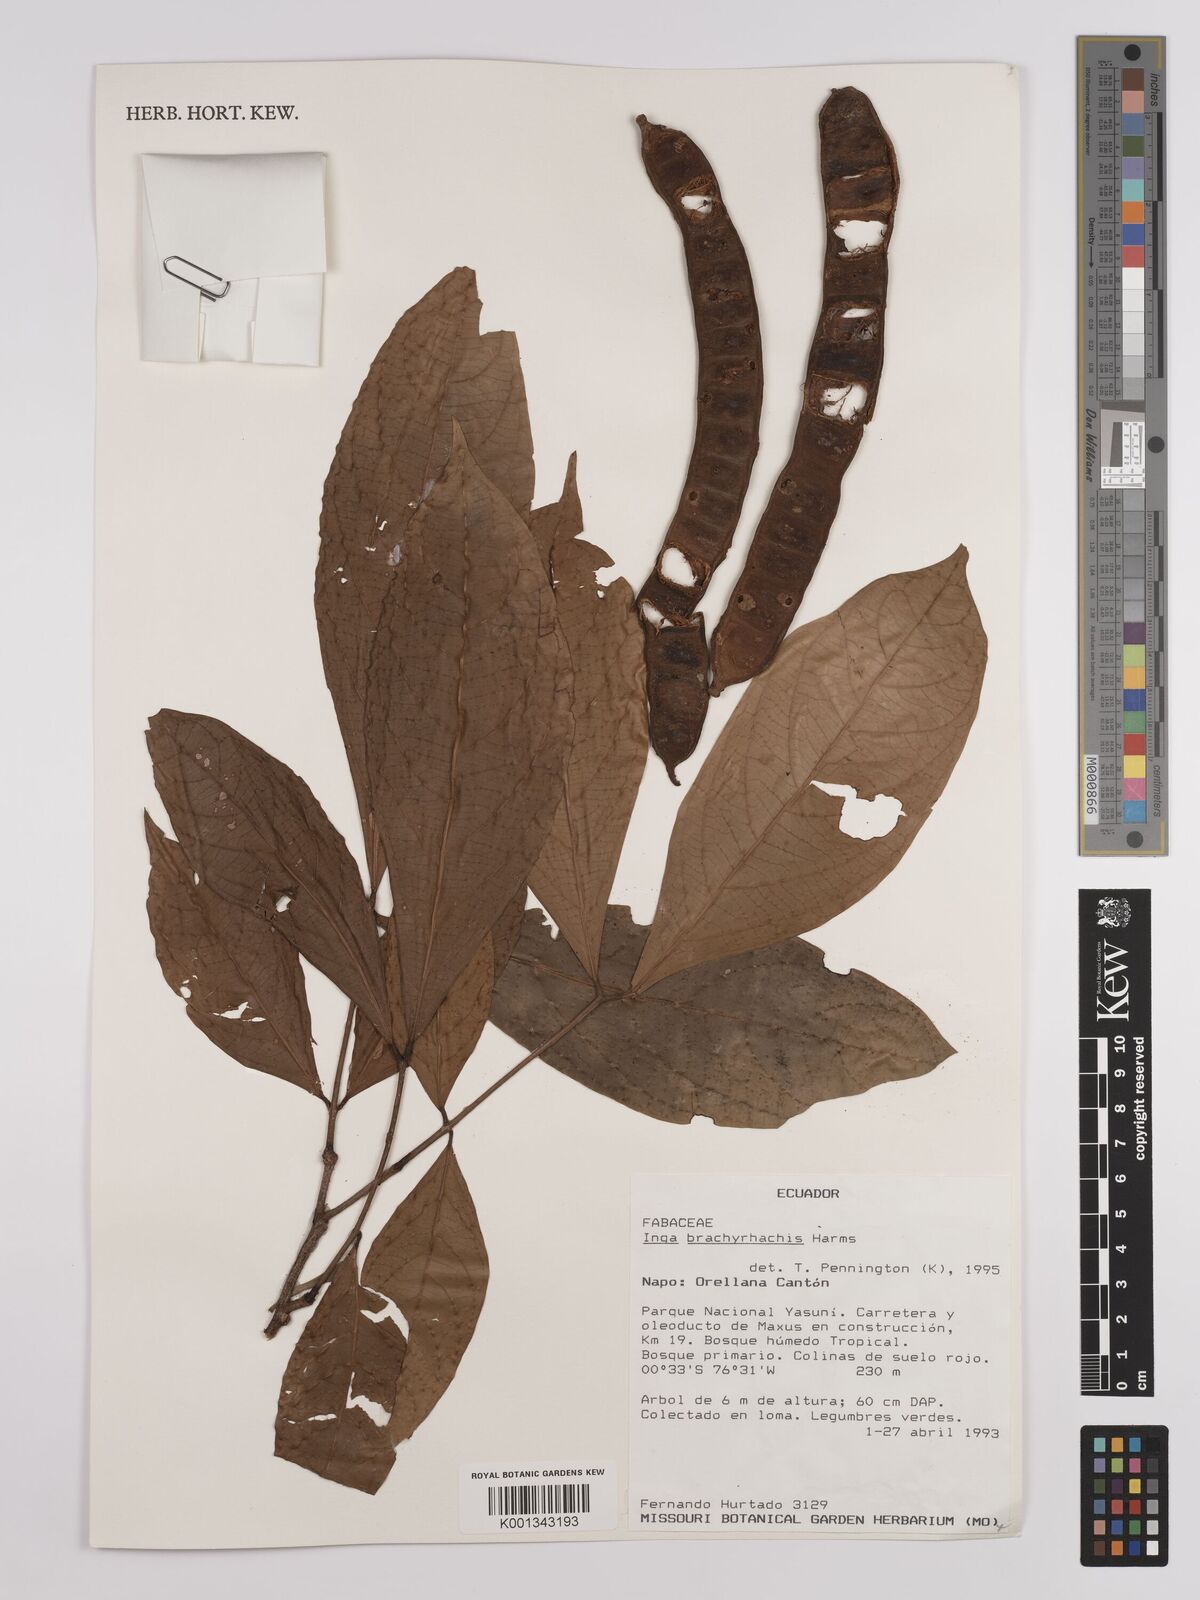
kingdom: Plantae
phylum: Tracheophyta
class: Magnoliopsida
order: Fabales
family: Fabaceae
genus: Inga
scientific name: Inga brachyrhachis
